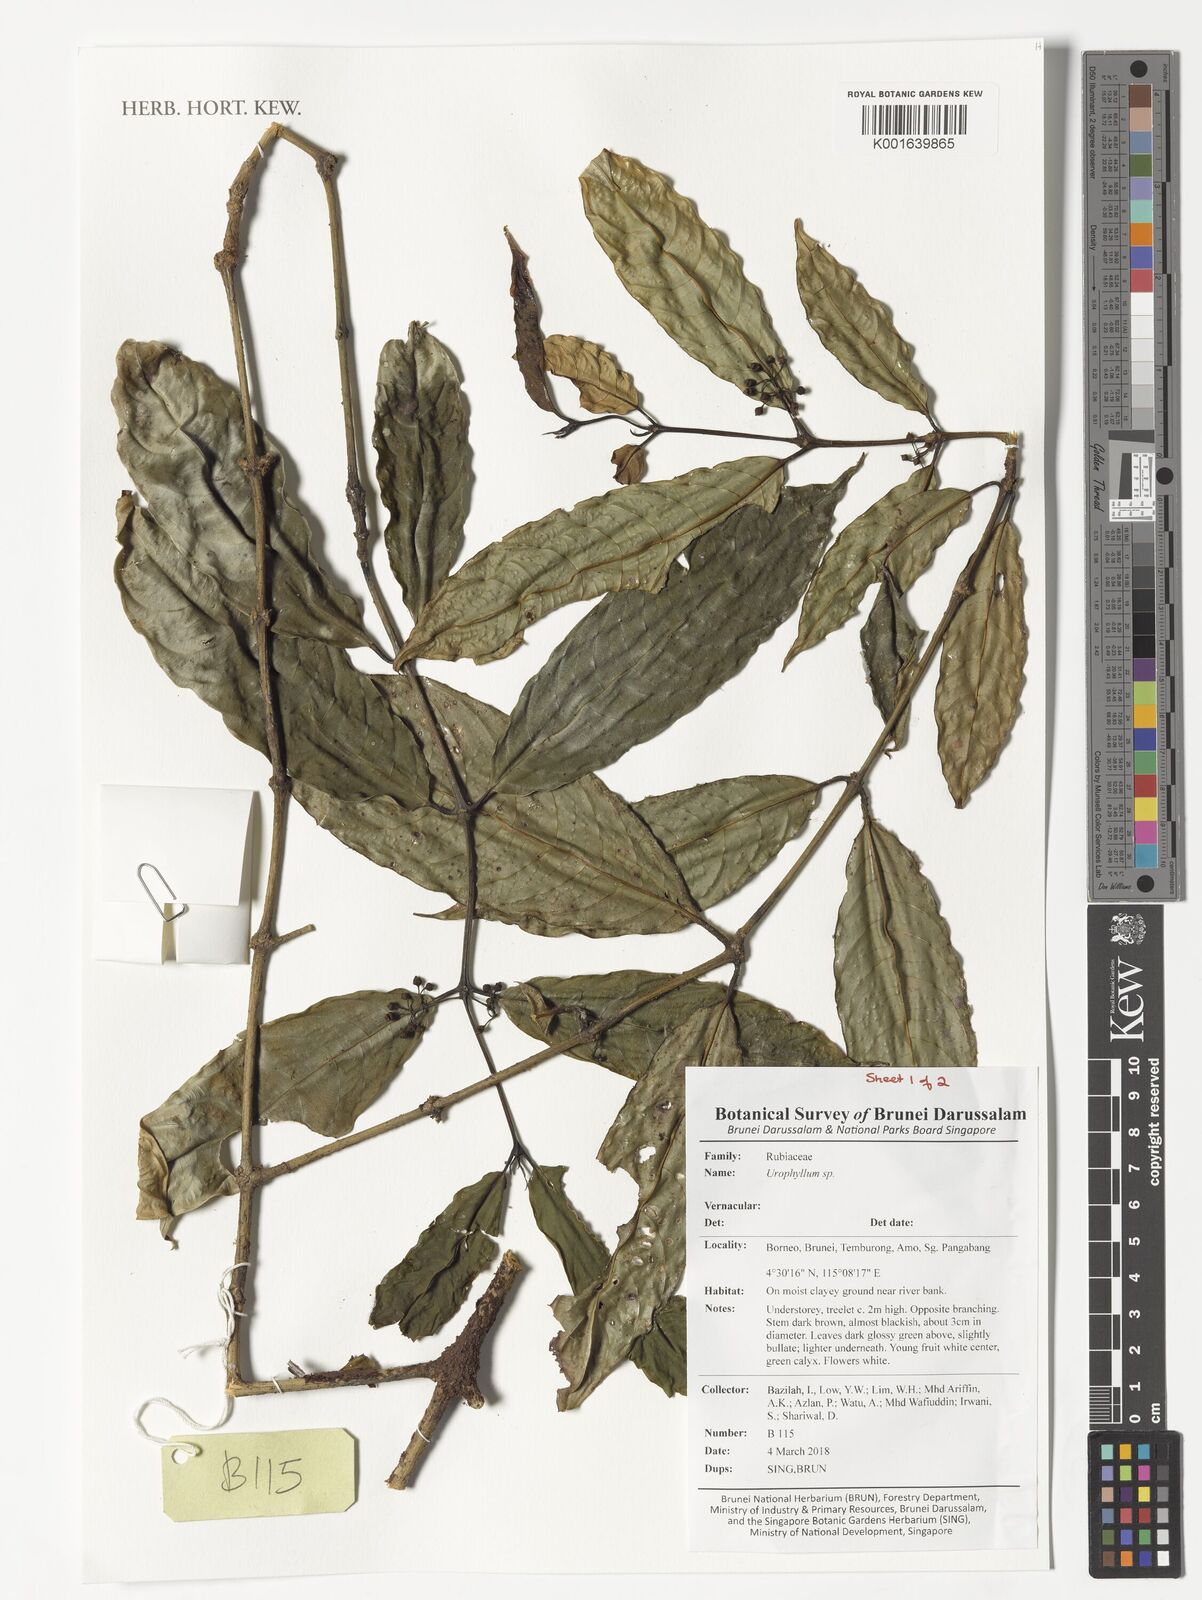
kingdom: Plantae
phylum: Tracheophyta
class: Magnoliopsida
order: Gentianales
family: Rubiaceae
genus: Urophyllum
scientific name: Urophyllum
